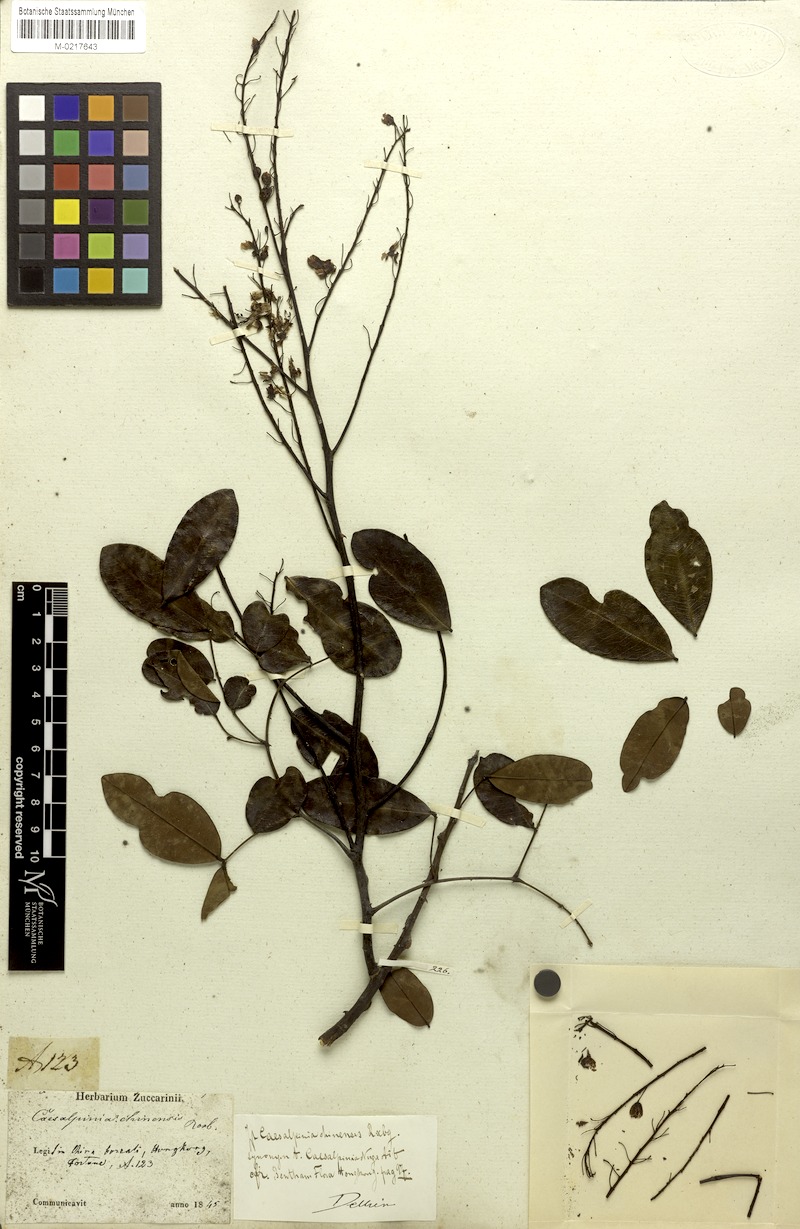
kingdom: Plantae
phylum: Tracheophyta
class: Magnoliopsida
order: Fabales
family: Fabaceae
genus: Caesalpinia
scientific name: Caesalpinia Ticanto crista
